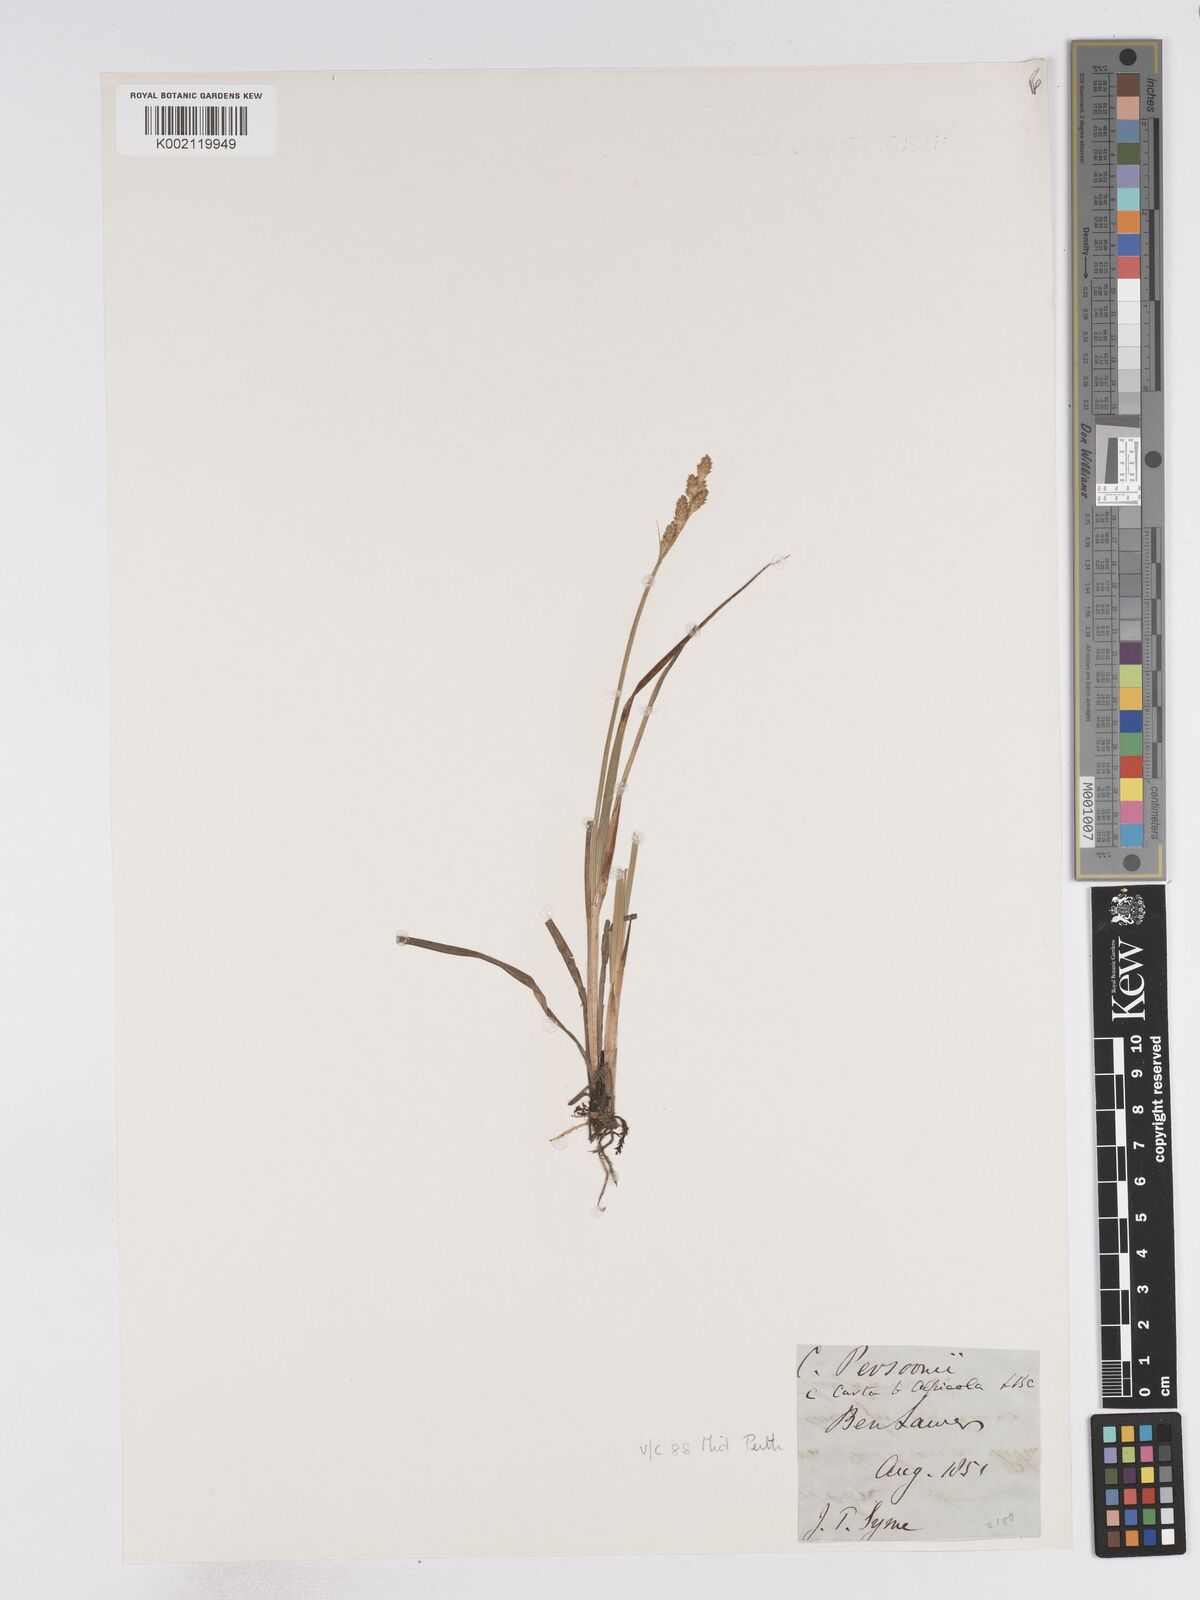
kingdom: Plantae
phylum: Tracheophyta
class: Liliopsida
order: Poales
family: Cyperaceae
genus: Carex
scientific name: Carex canescens
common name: White sedge
